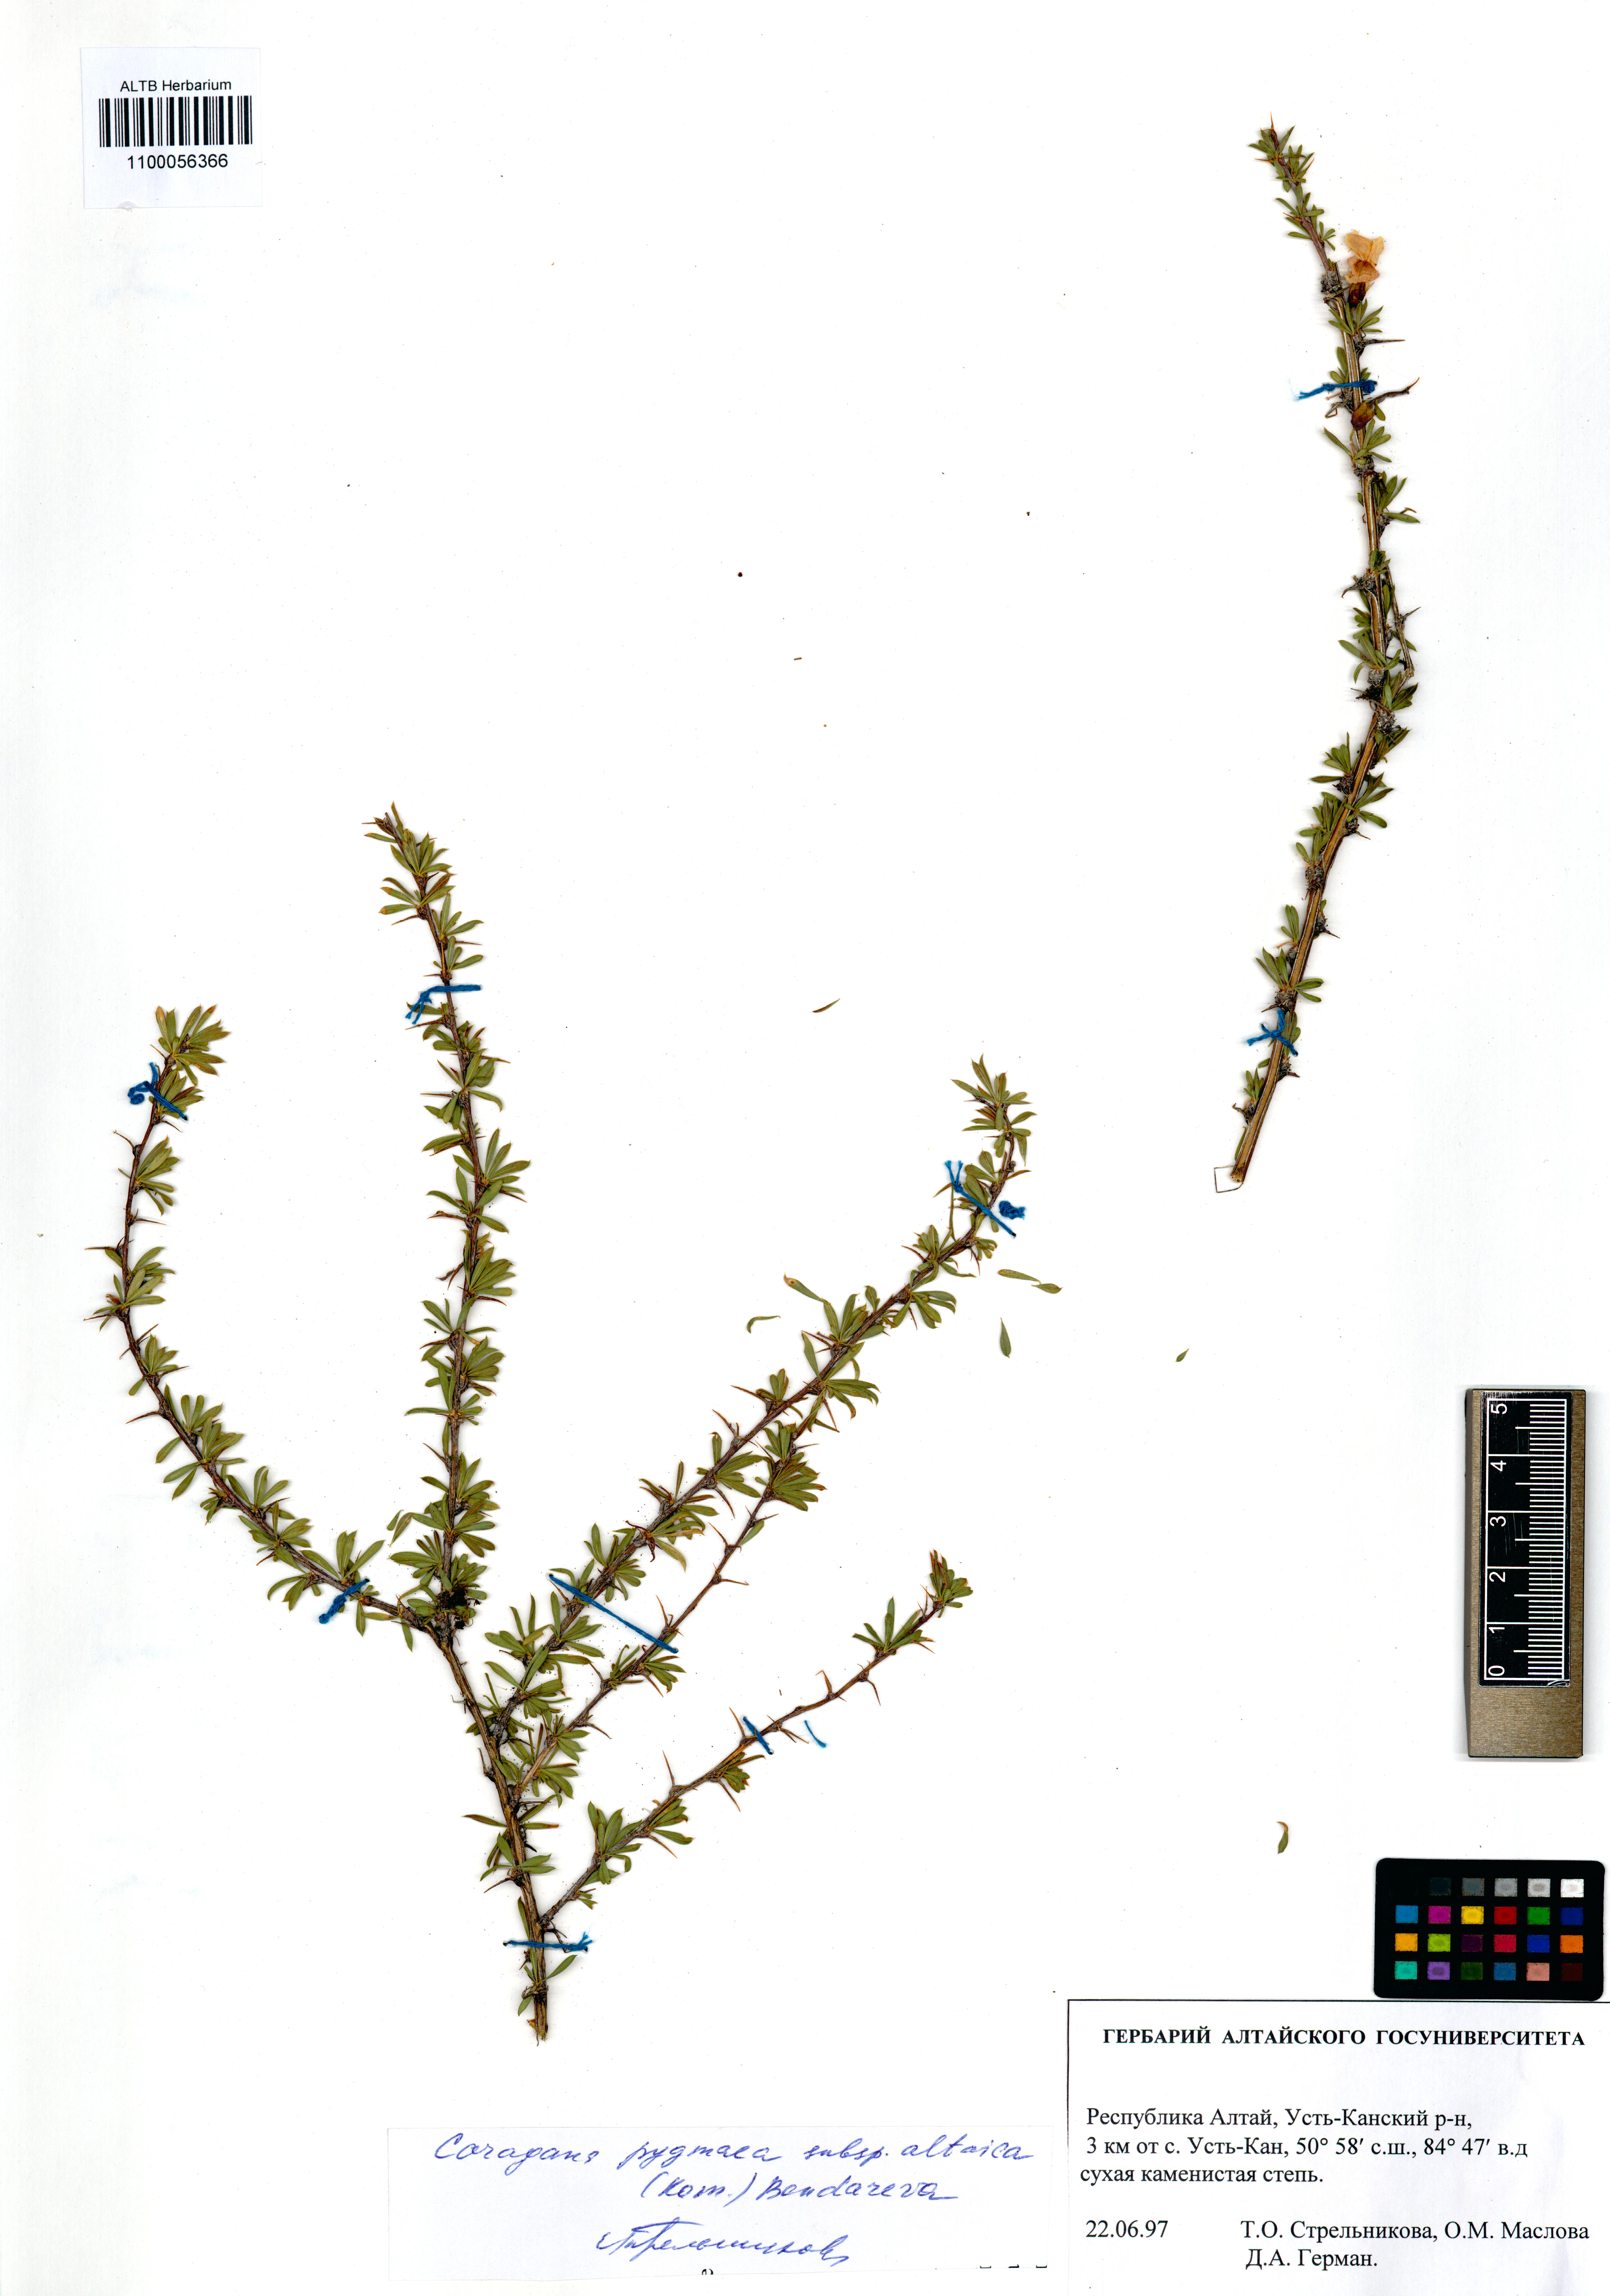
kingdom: Plantae
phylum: Tracheophyta
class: Magnoliopsida
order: Fabales
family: Fabaceae
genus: Caragana
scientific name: Caragana pygmaea
